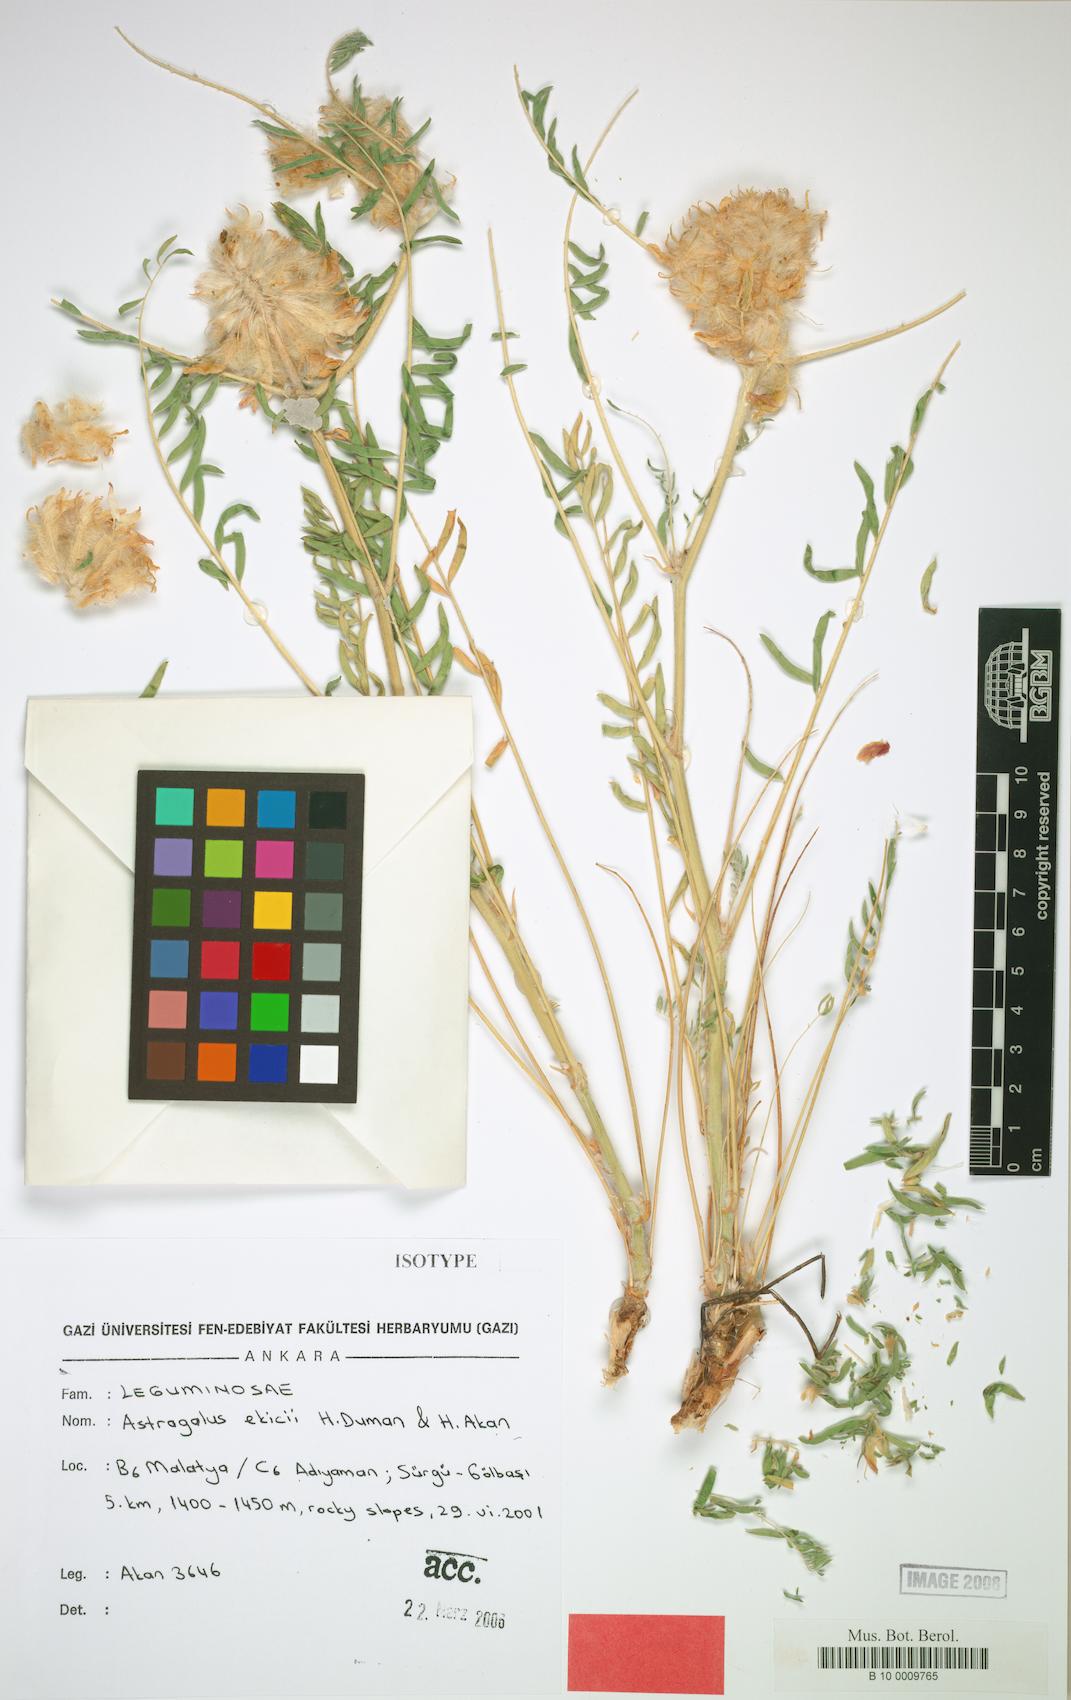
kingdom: Plantae
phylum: Tracheophyta
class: Magnoliopsida
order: Fabales
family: Fabaceae
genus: Astragalus
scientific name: Astragalus ekicii
